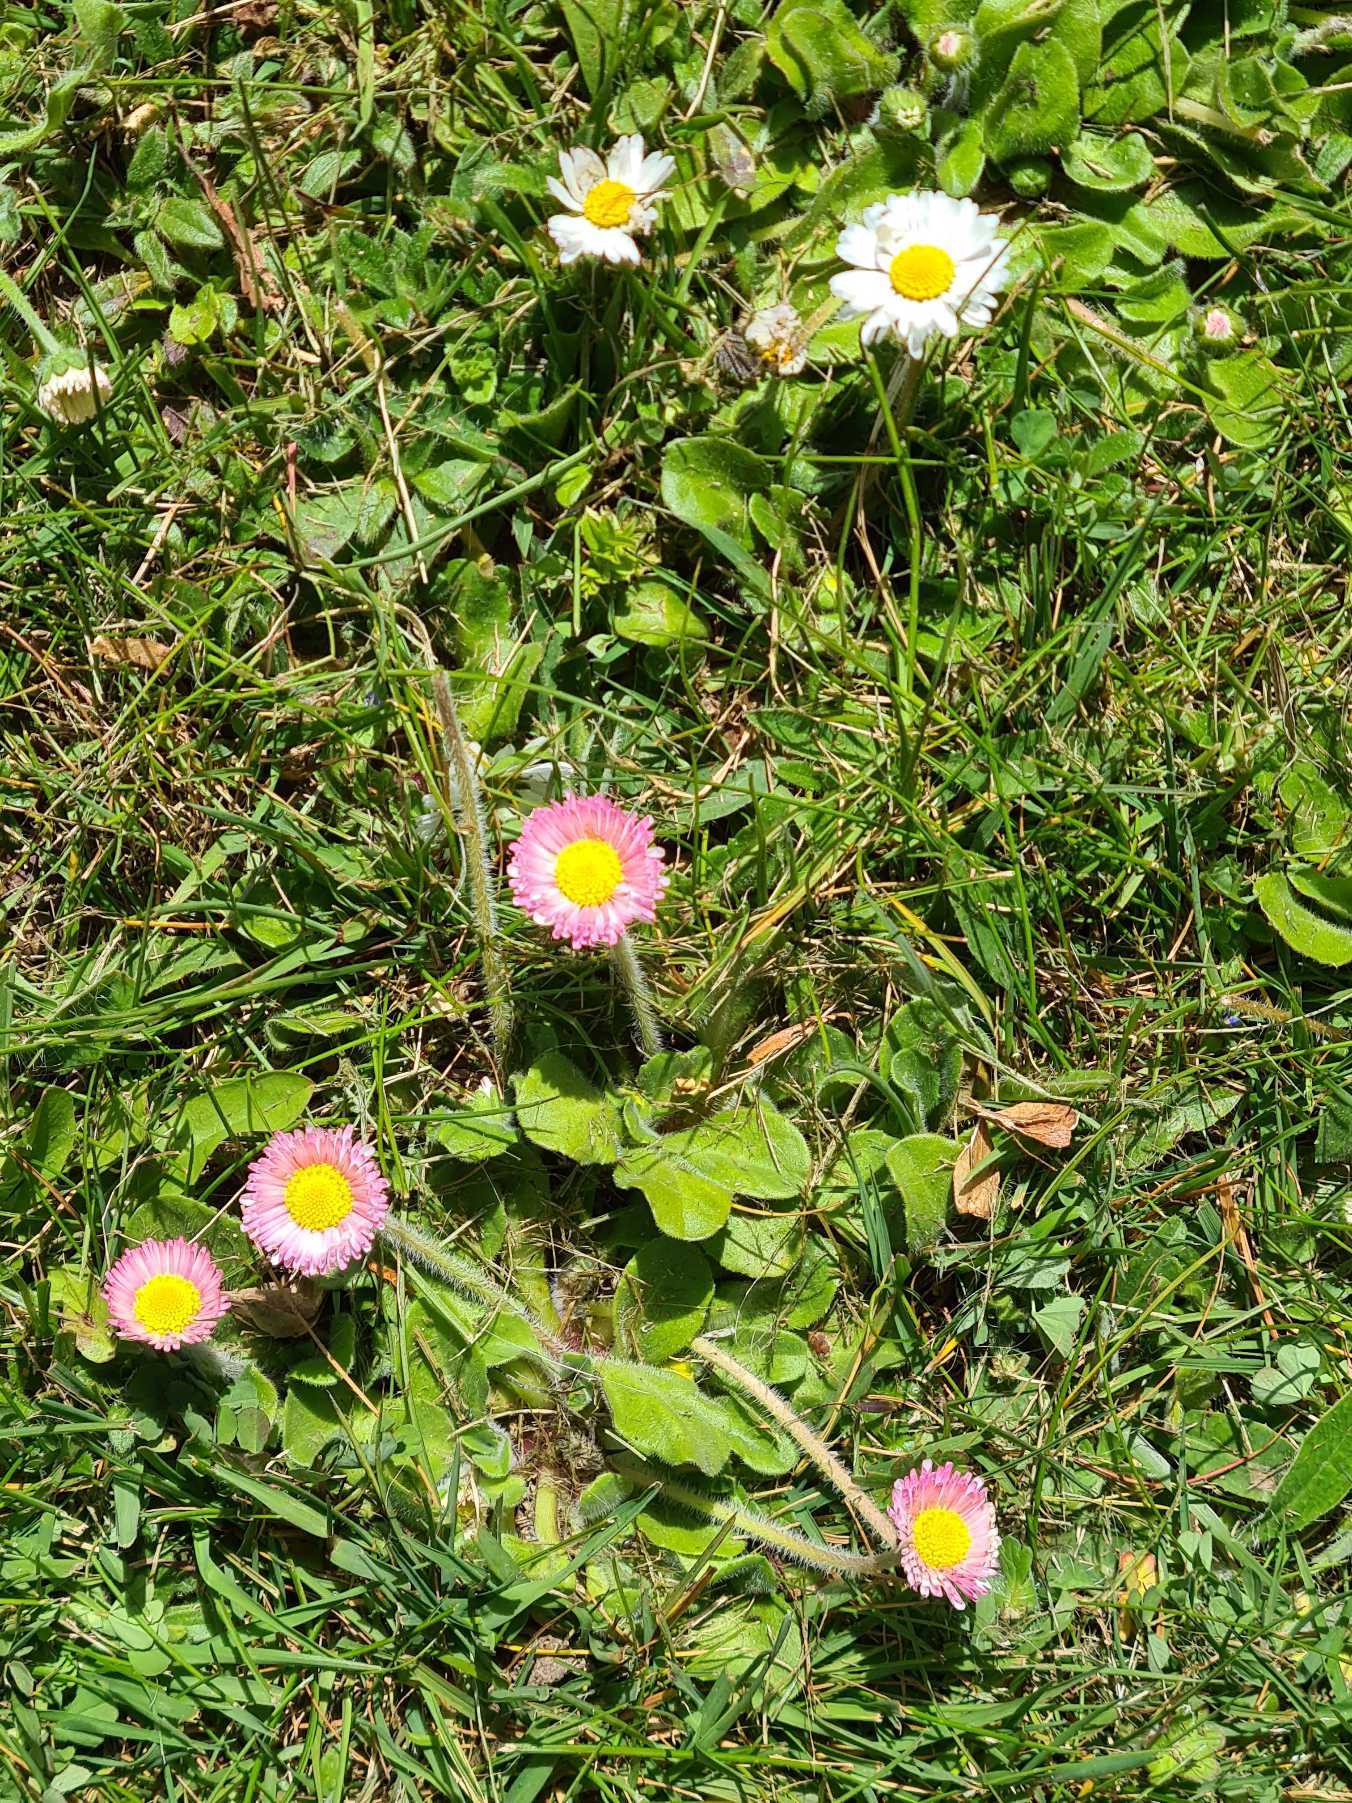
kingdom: Plantae
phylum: Tracheophyta
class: Magnoliopsida
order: Asterales
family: Asteraceae
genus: Bellis
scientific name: Bellis perennis
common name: Tusindfryd
